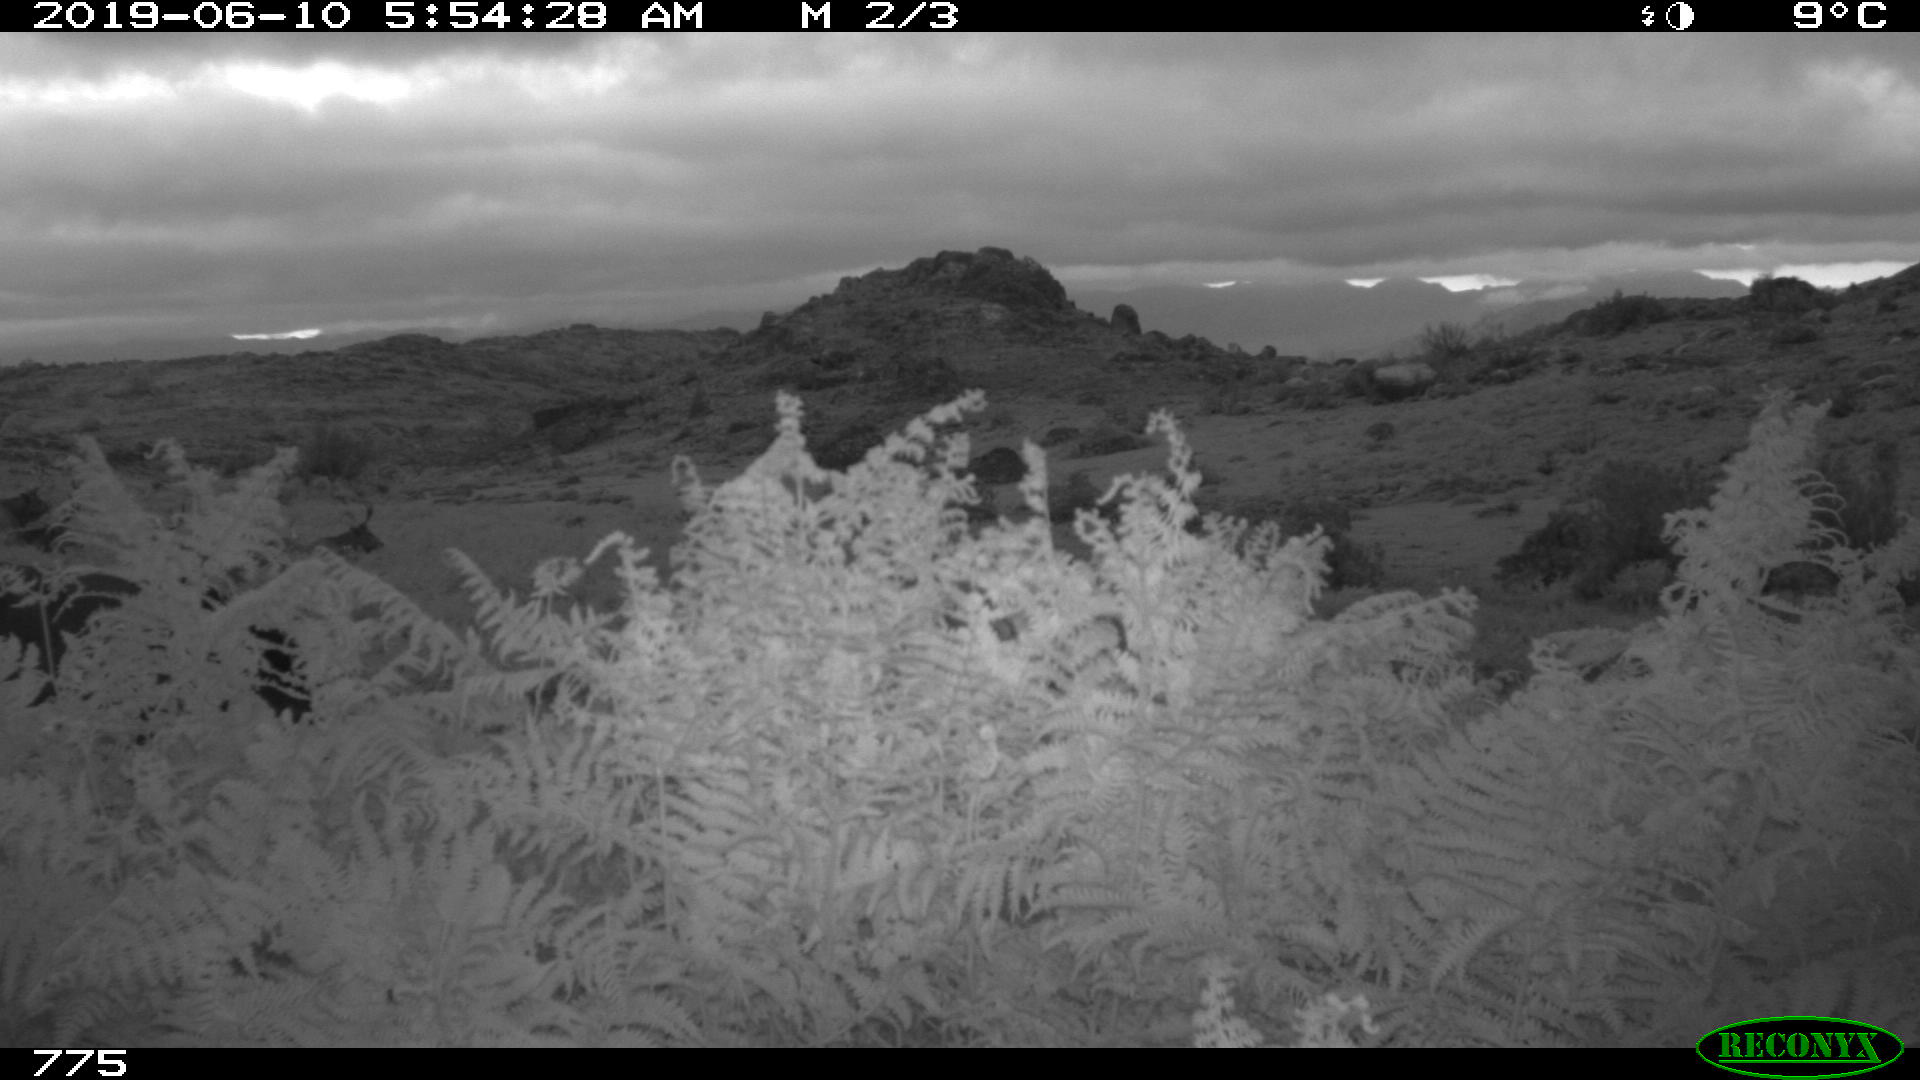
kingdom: Animalia
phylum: Chordata
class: Mammalia
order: Perissodactyla
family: Equidae
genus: Equus
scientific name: Equus caballus
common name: Horse
